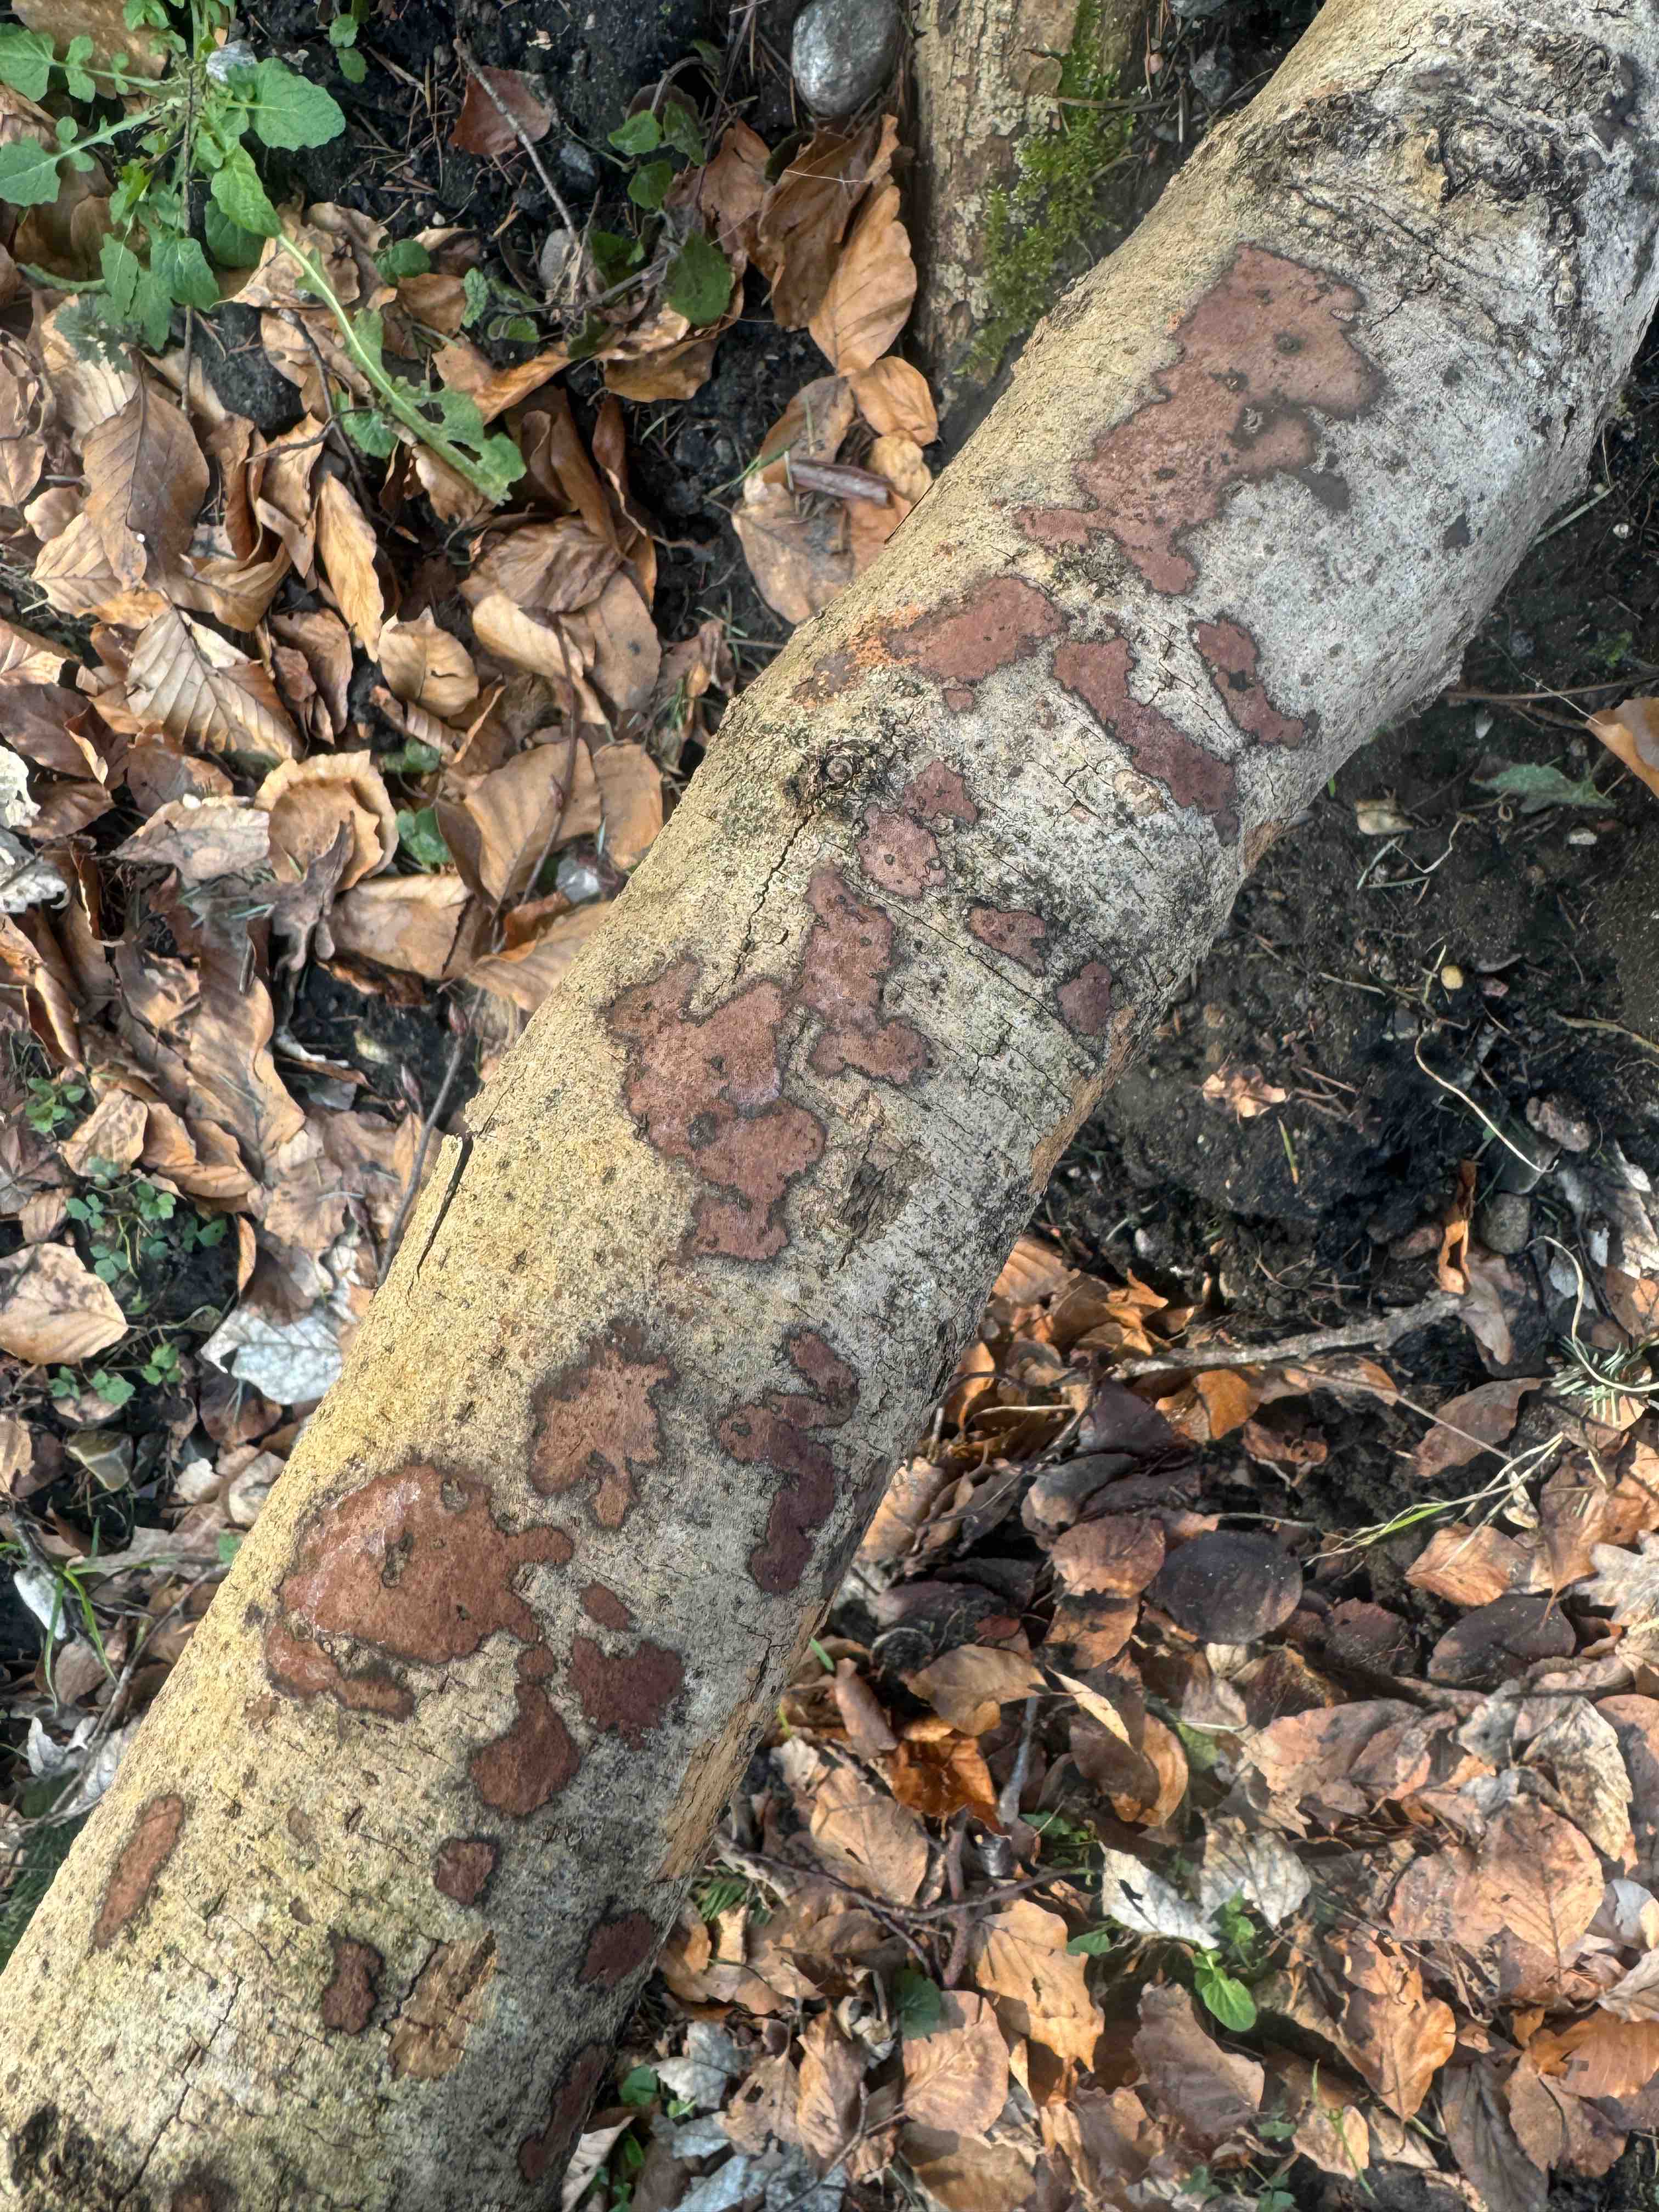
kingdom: Fungi
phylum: Ascomycota
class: Sordariomycetes
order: Xylariales
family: Hypoxylaceae
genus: Hypoxylon
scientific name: Hypoxylon petriniae
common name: nedsænket kulbær
